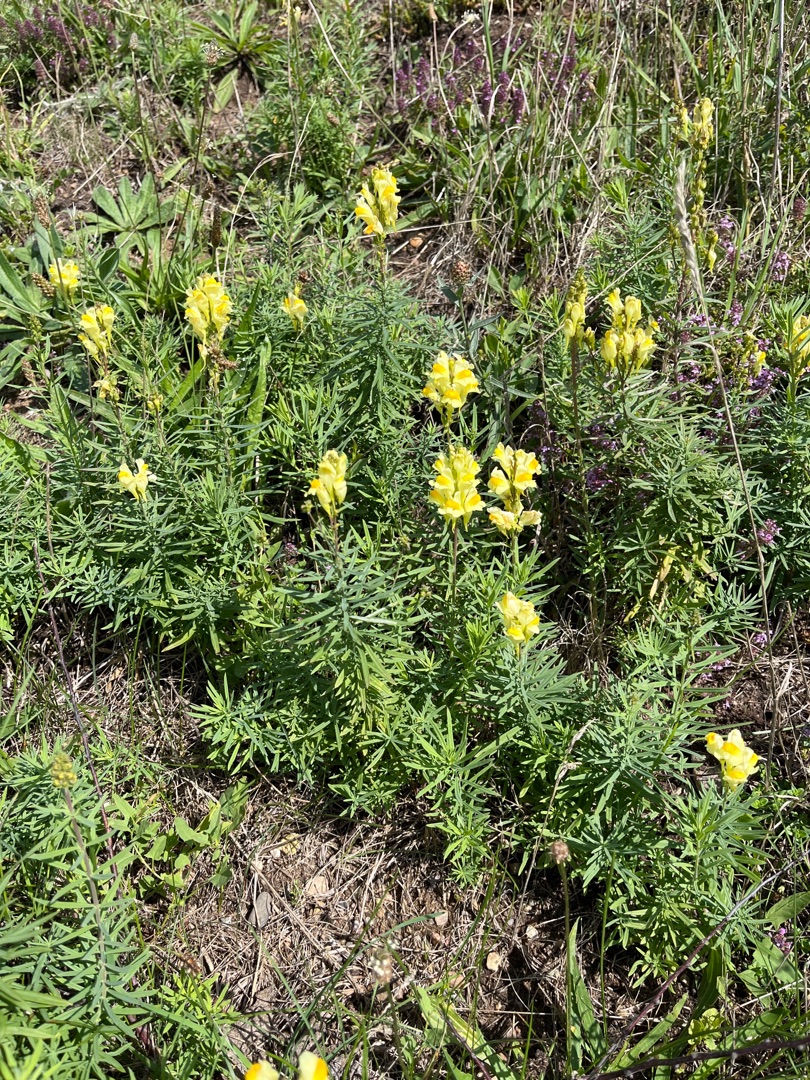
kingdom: Plantae
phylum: Tracheophyta
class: Magnoliopsida
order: Lamiales
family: Plantaginaceae
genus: Linaria
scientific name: Linaria vulgaris
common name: Almindelig torskemund
